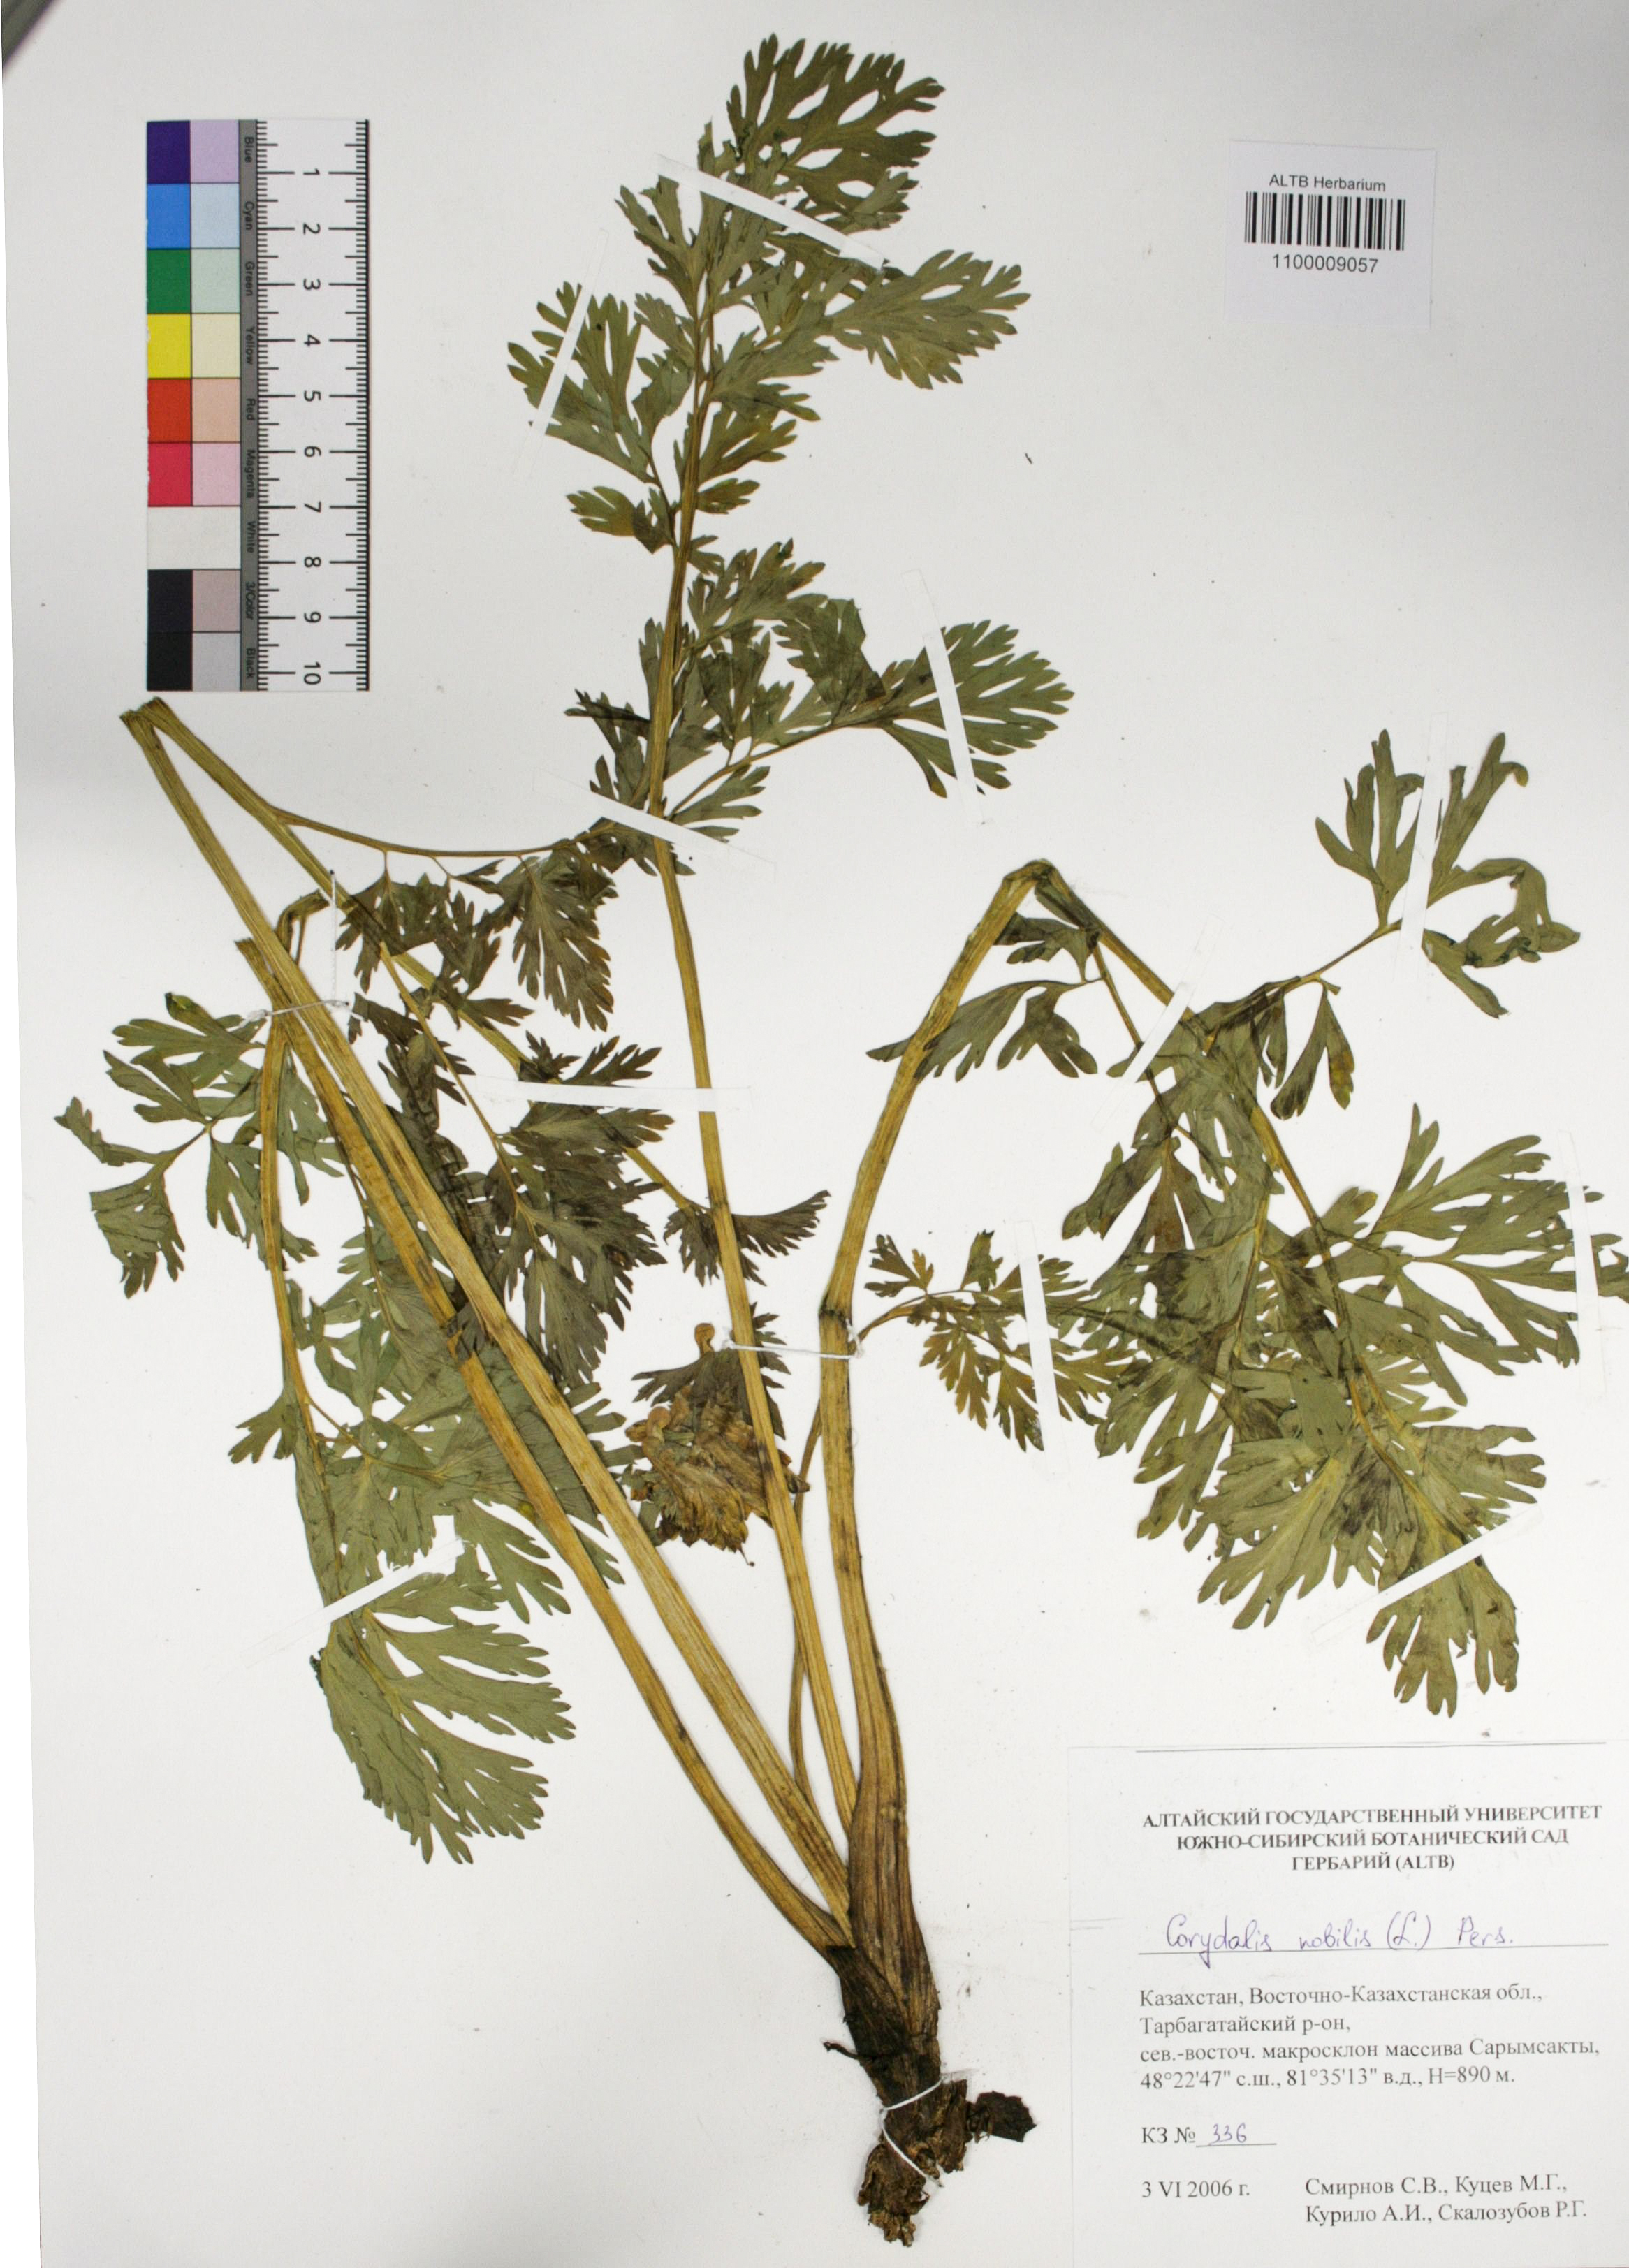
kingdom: Plantae
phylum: Tracheophyta
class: Magnoliopsida
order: Ranunculales
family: Papaveraceae
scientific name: Papaveraceae
